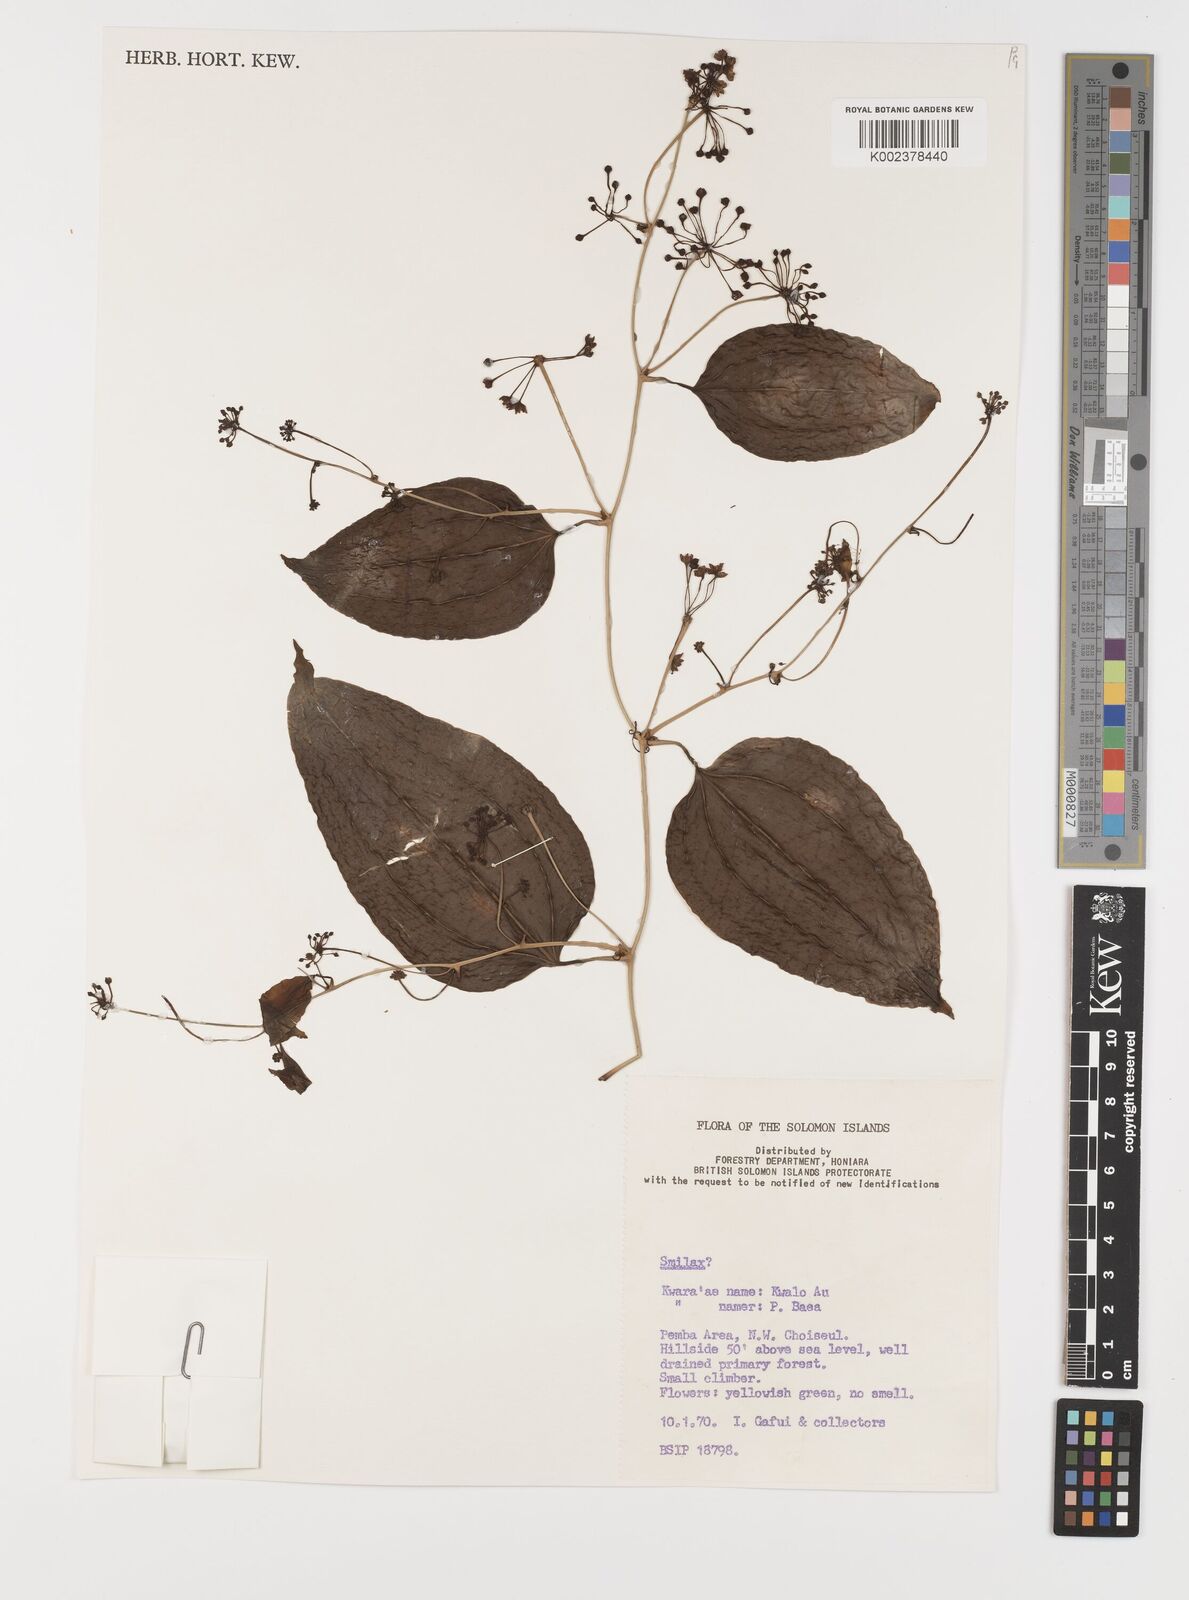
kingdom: Plantae
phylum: Tracheophyta
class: Liliopsida
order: Liliales
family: Smilacaceae
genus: Smilax
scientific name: Smilax
